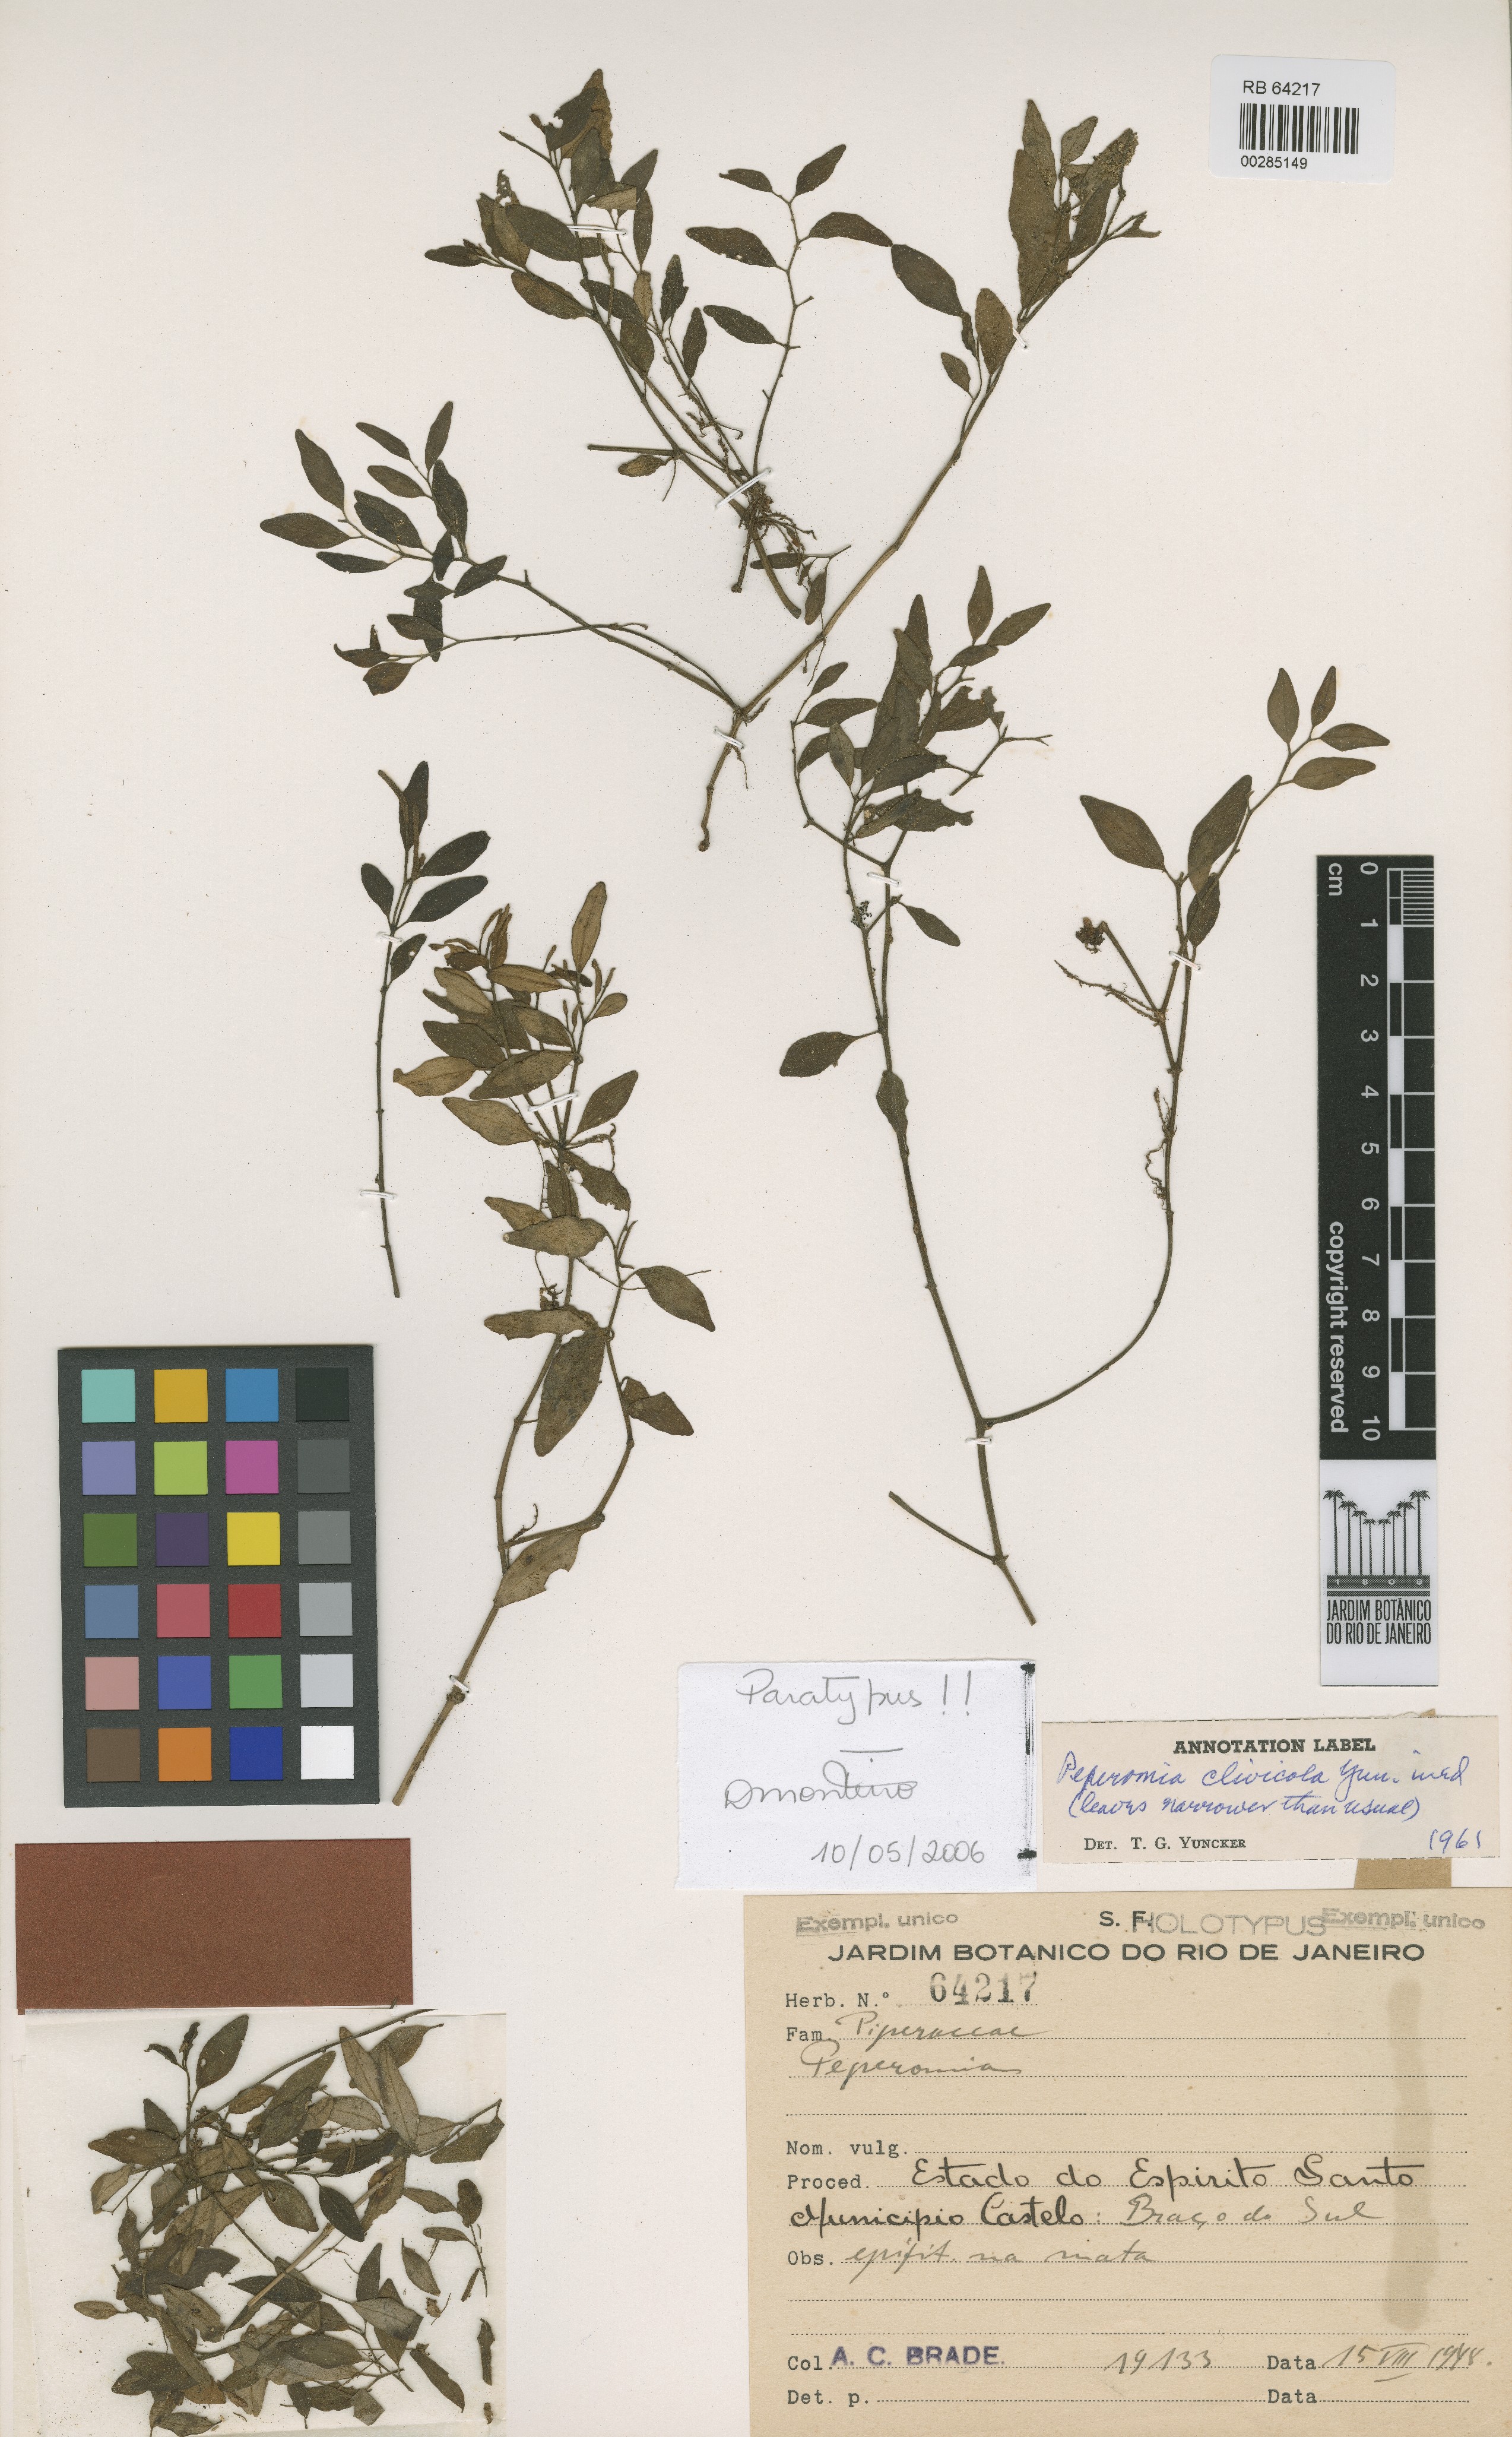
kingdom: Plantae
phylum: Tracheophyta
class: Magnoliopsida
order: Piperales
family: Piperaceae
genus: Peperomia
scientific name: Peperomia clivicola
